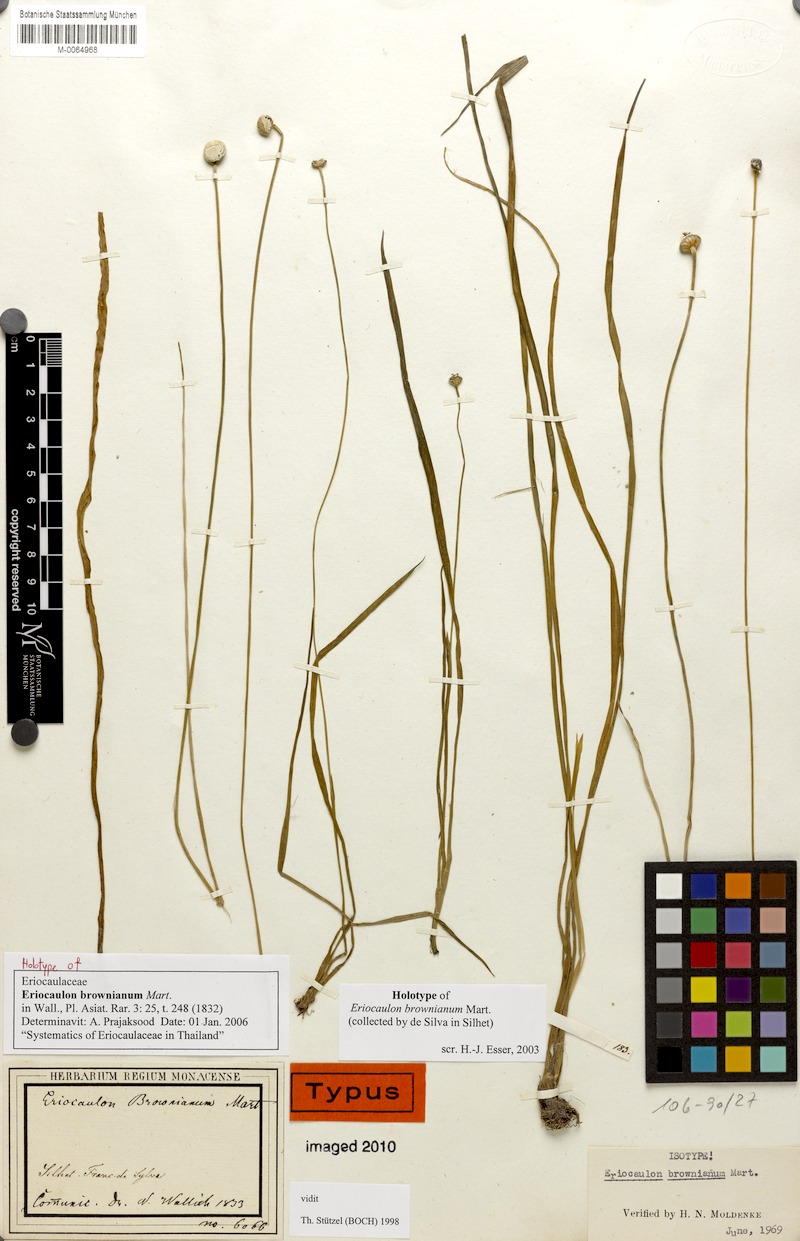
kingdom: Plantae
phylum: Tracheophyta
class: Liliopsida
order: Poales
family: Eriocaulaceae
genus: Eriocaulon
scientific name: Eriocaulon brownianum
